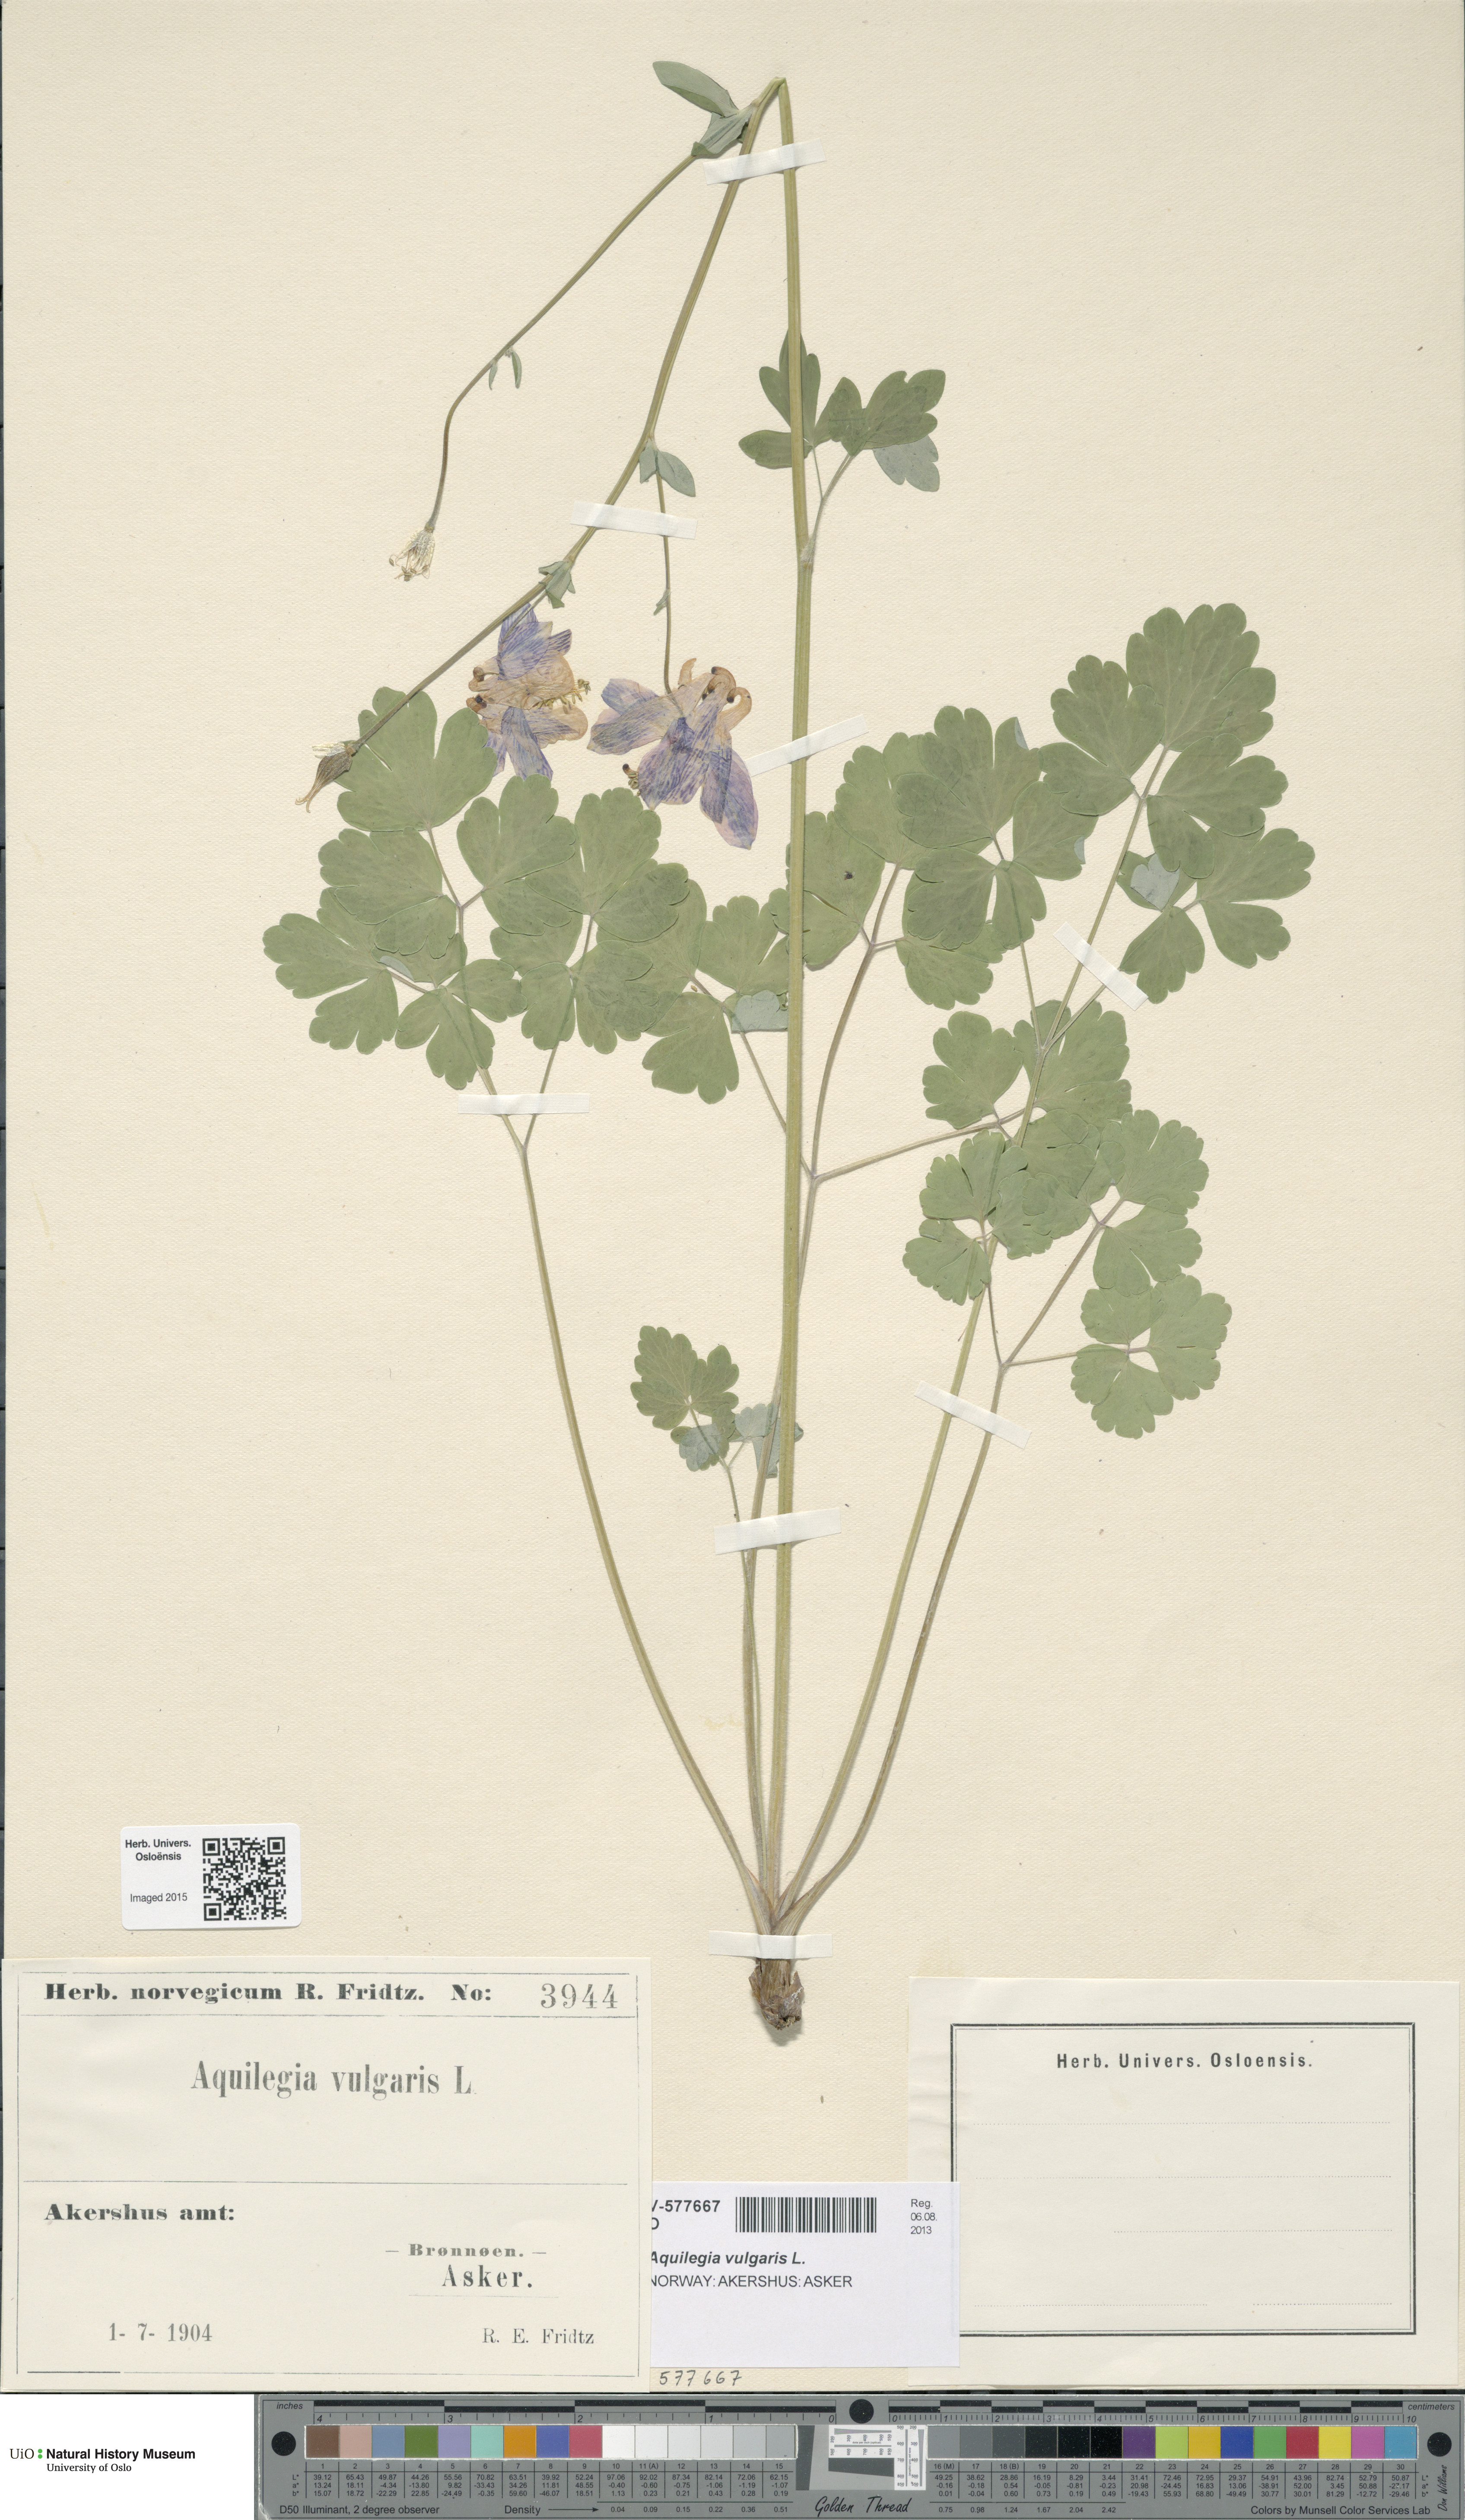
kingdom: Plantae
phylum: Tracheophyta
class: Magnoliopsida
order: Ranunculales
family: Ranunculaceae
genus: Aquilegia
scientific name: Aquilegia vulgaris
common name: Columbine
